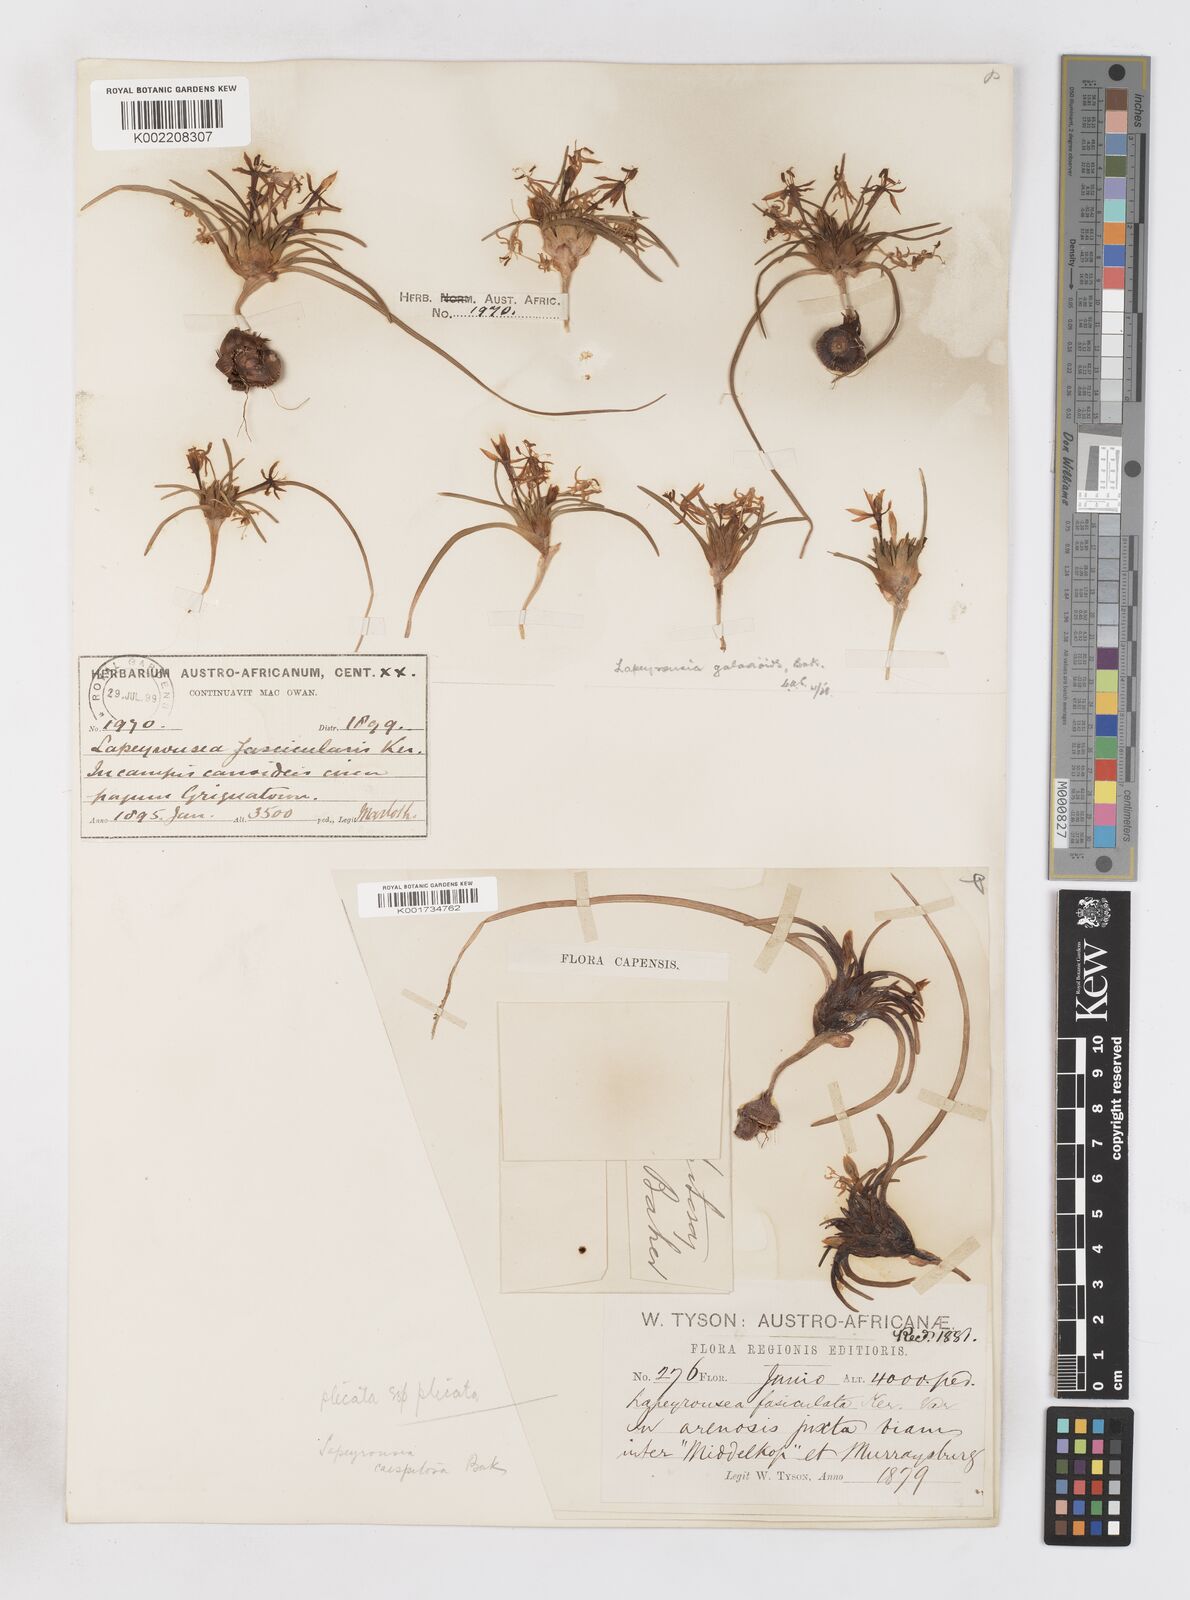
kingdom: Plantae
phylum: Tracheophyta
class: Liliopsida
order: Asparagales
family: Iridaceae
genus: Lapeirousia
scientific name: Lapeirousia plicata
